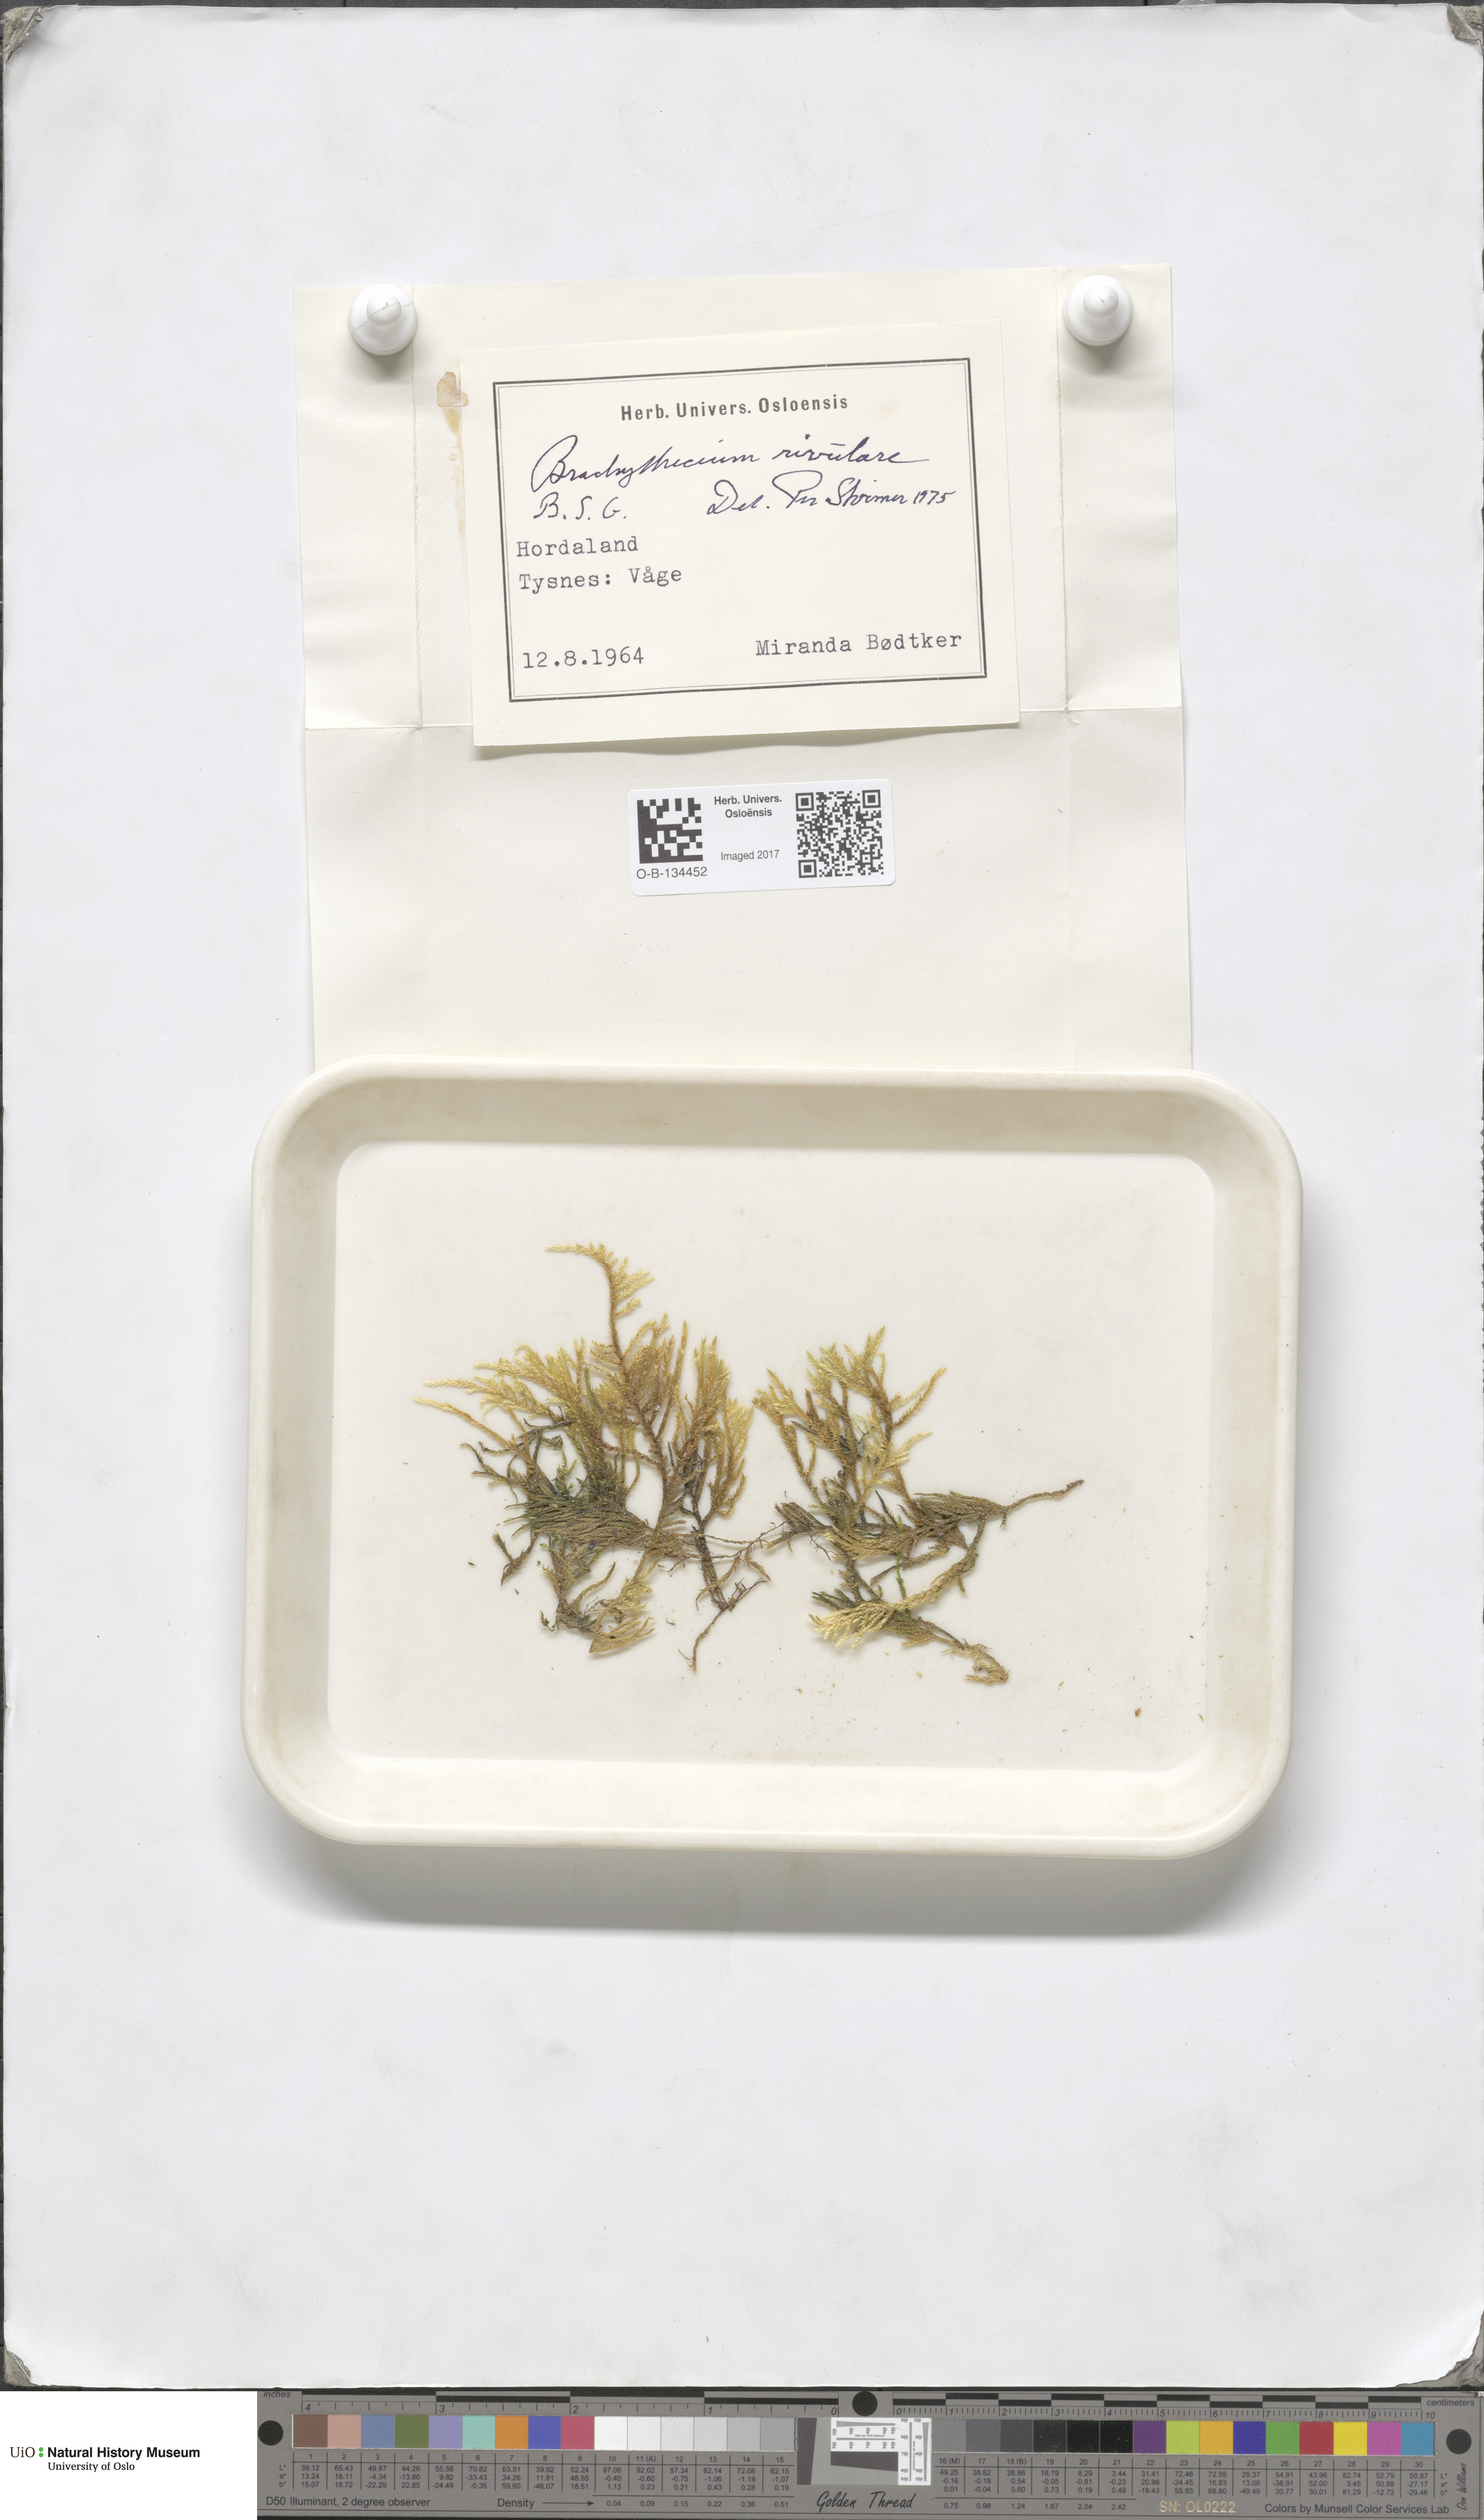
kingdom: Plantae
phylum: Bryophyta
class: Bryopsida
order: Hypnales
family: Brachytheciaceae
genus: Brachythecium
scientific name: Brachythecium rivulare
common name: River ragged moss
